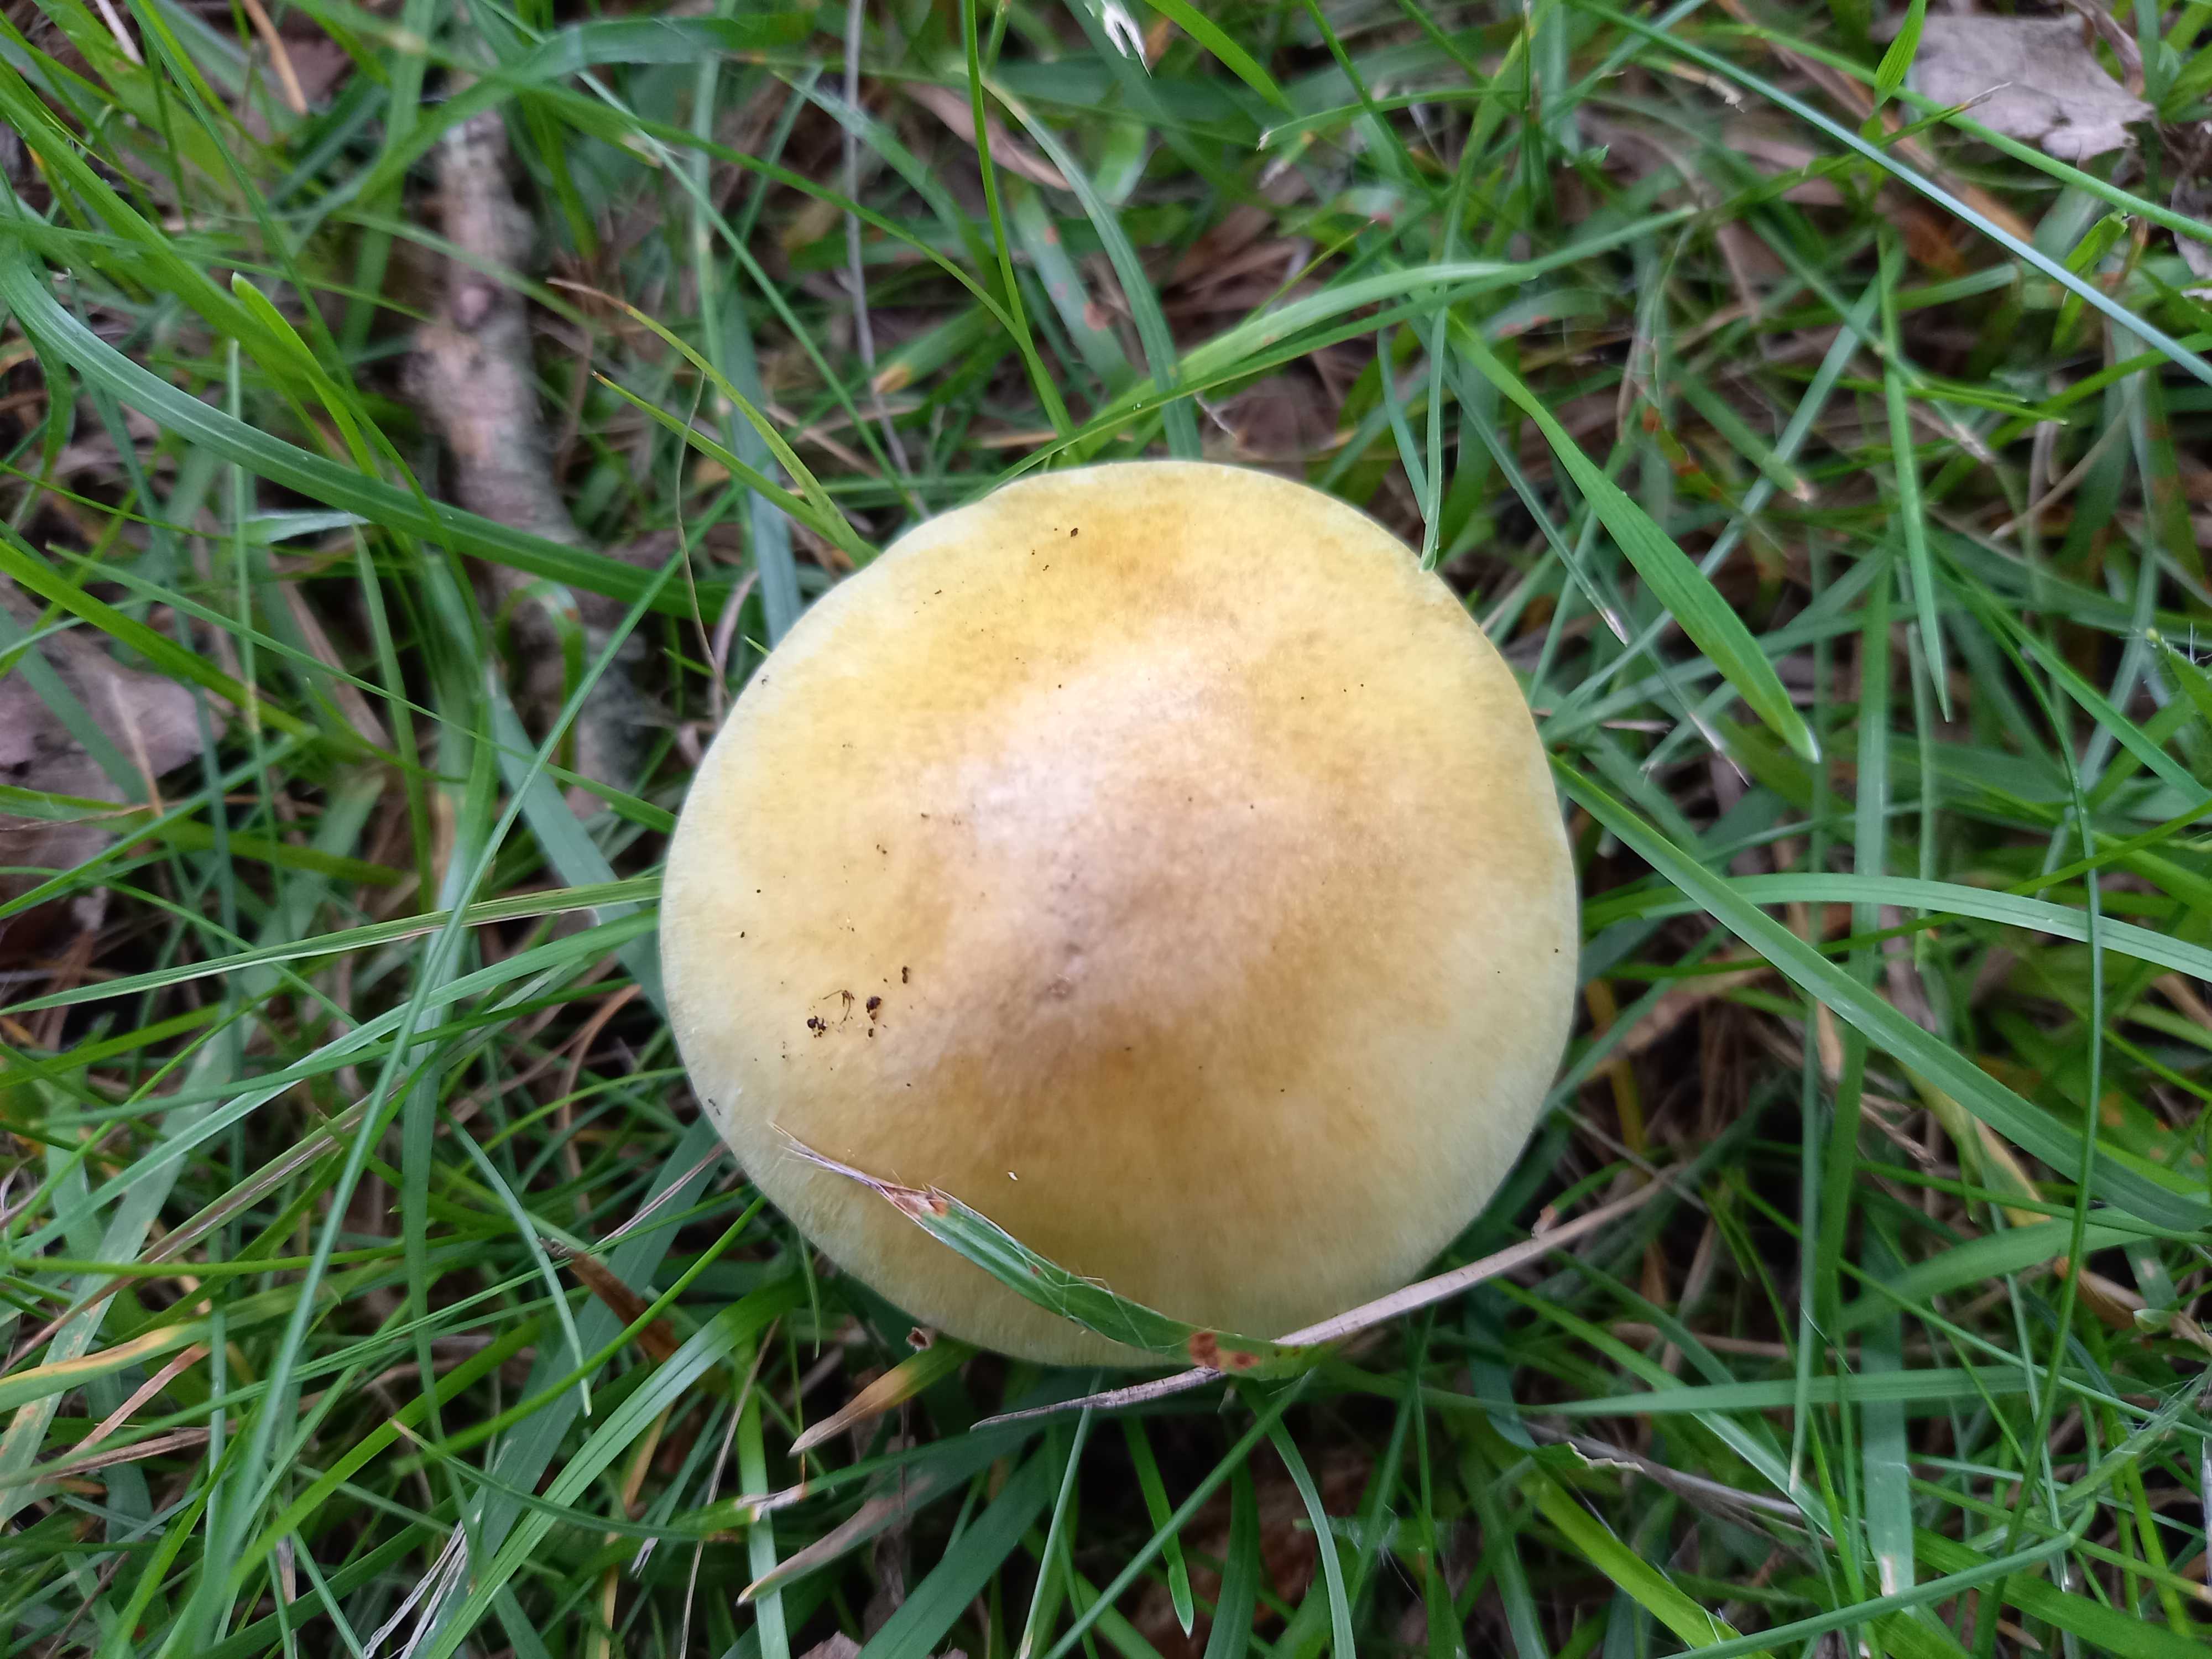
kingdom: Fungi
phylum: Basidiomycota
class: Agaricomycetes
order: Agaricales
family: Amanitaceae
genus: Amanita
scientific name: Amanita phalloides
